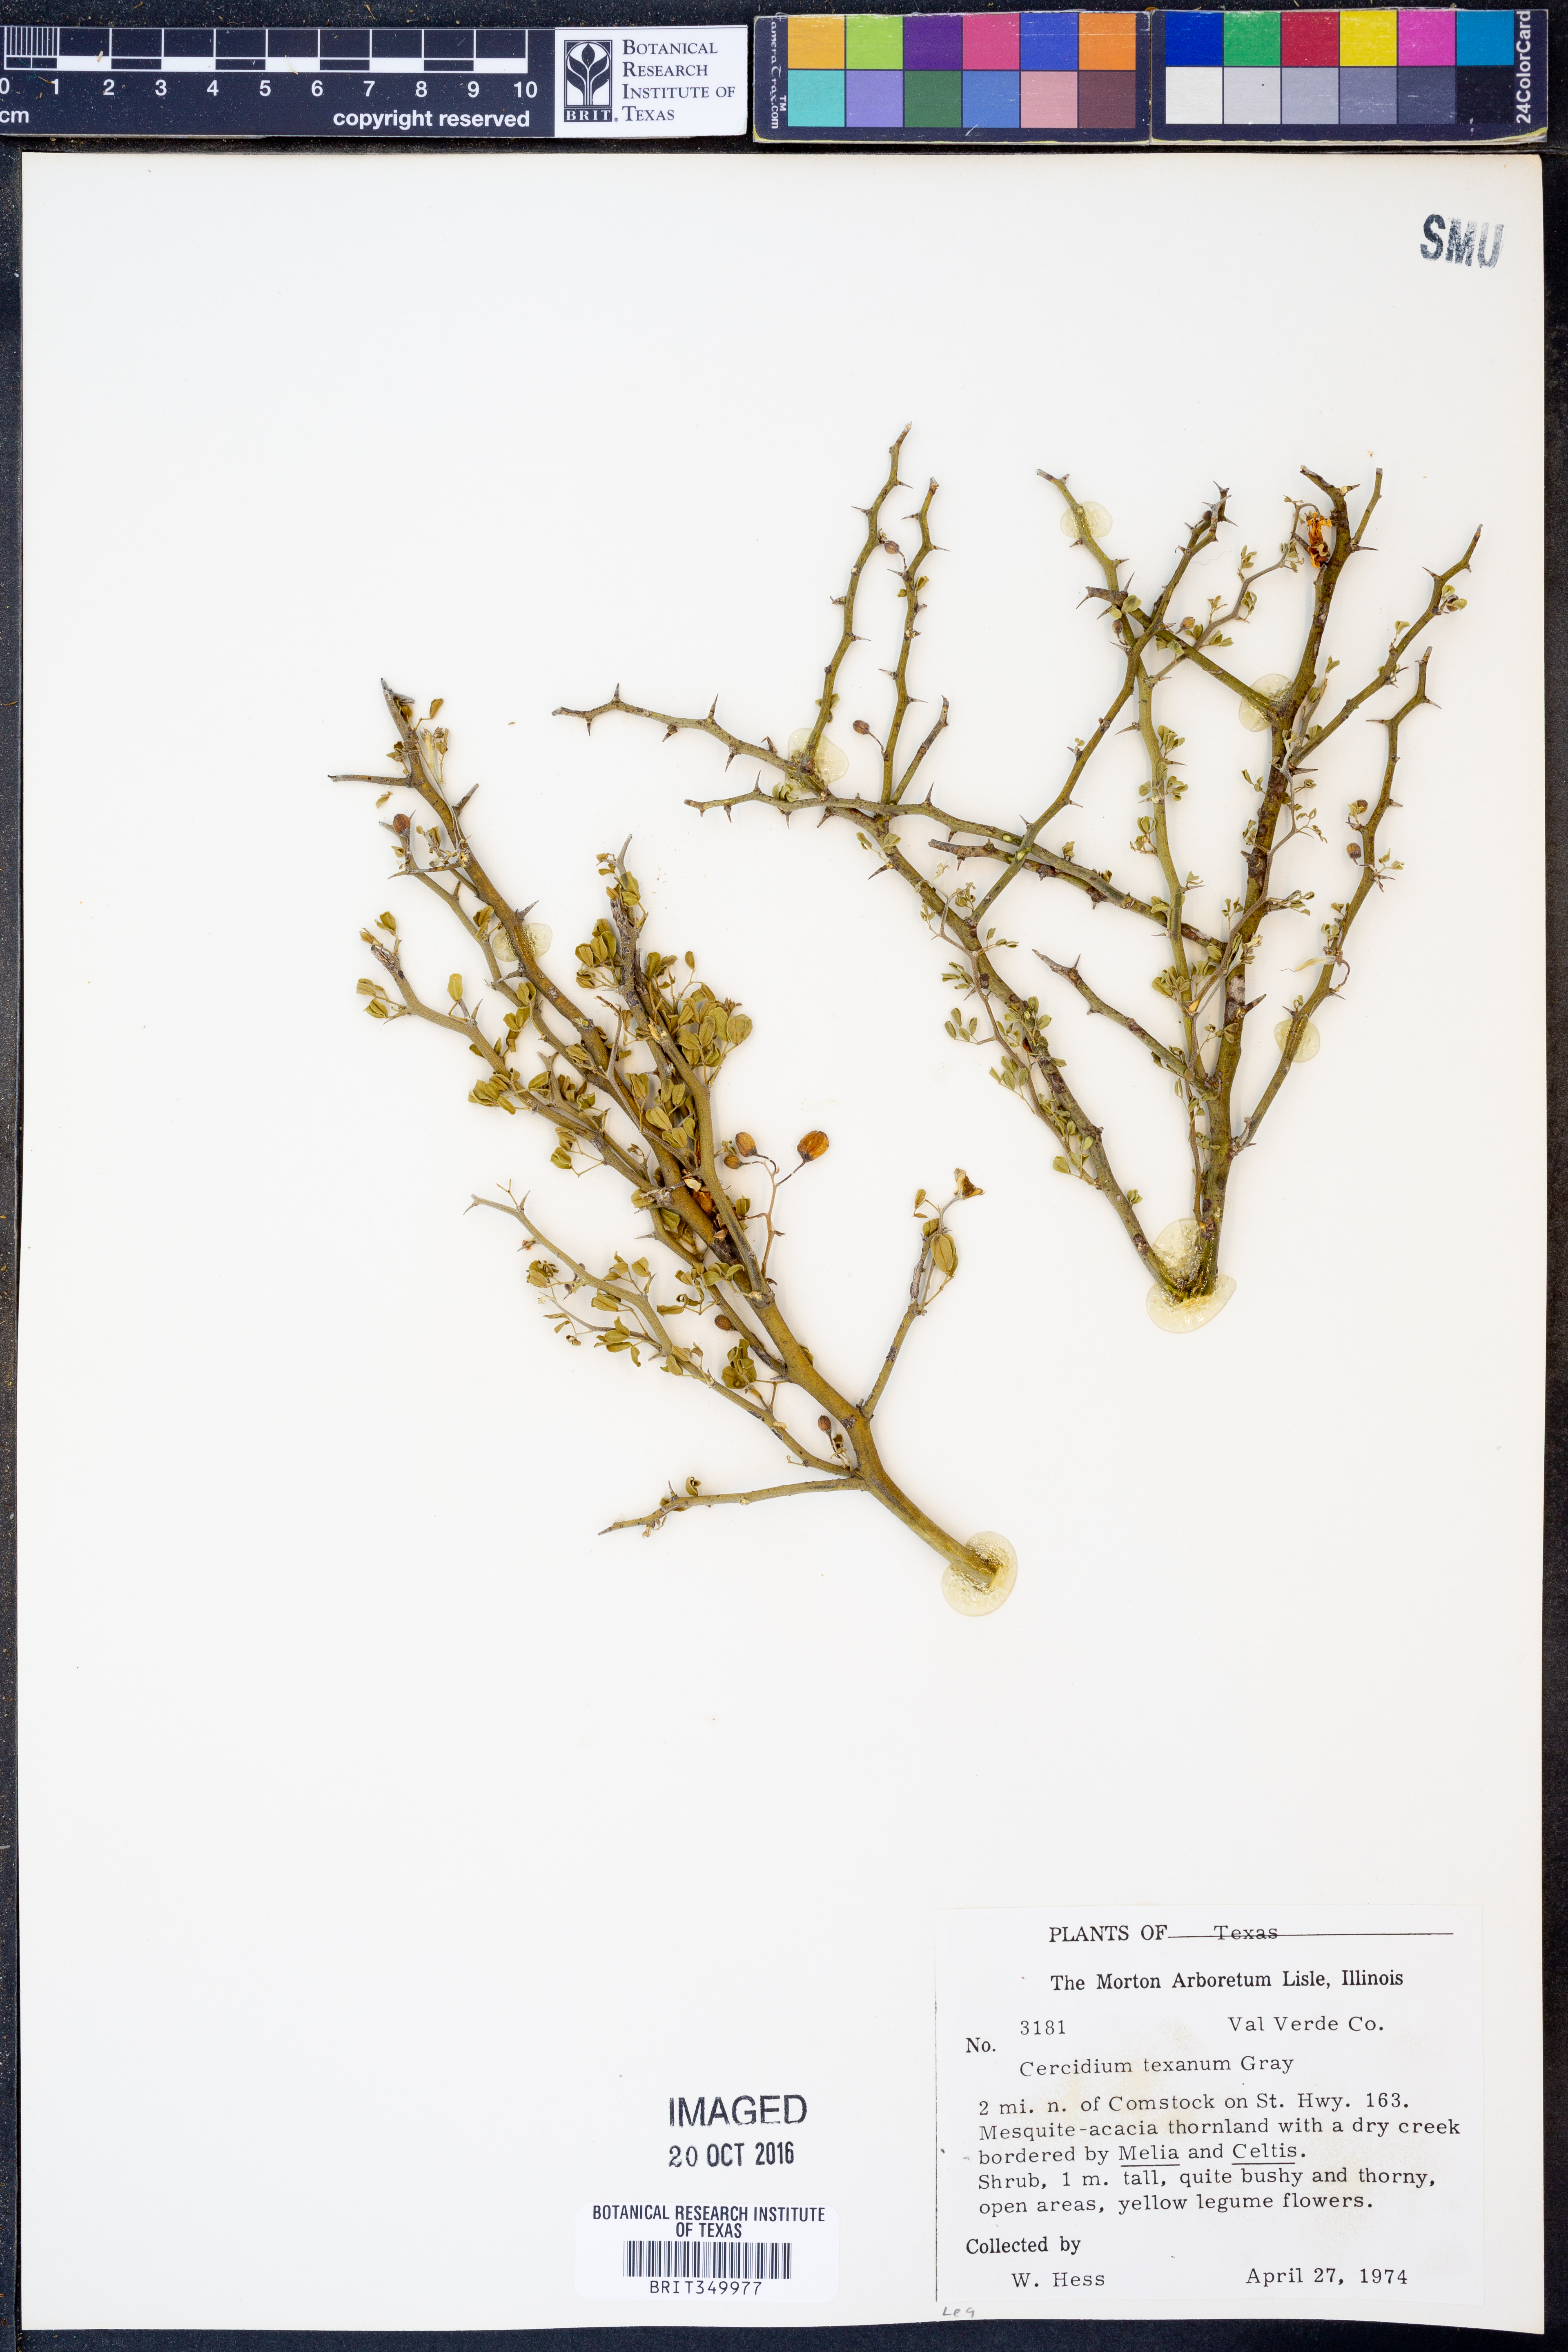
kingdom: Plantae
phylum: Tracheophyta
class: Magnoliopsida
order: Fabales
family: Fabaceae
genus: Parkinsonia
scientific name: Parkinsonia texana
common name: Texas paloverde
